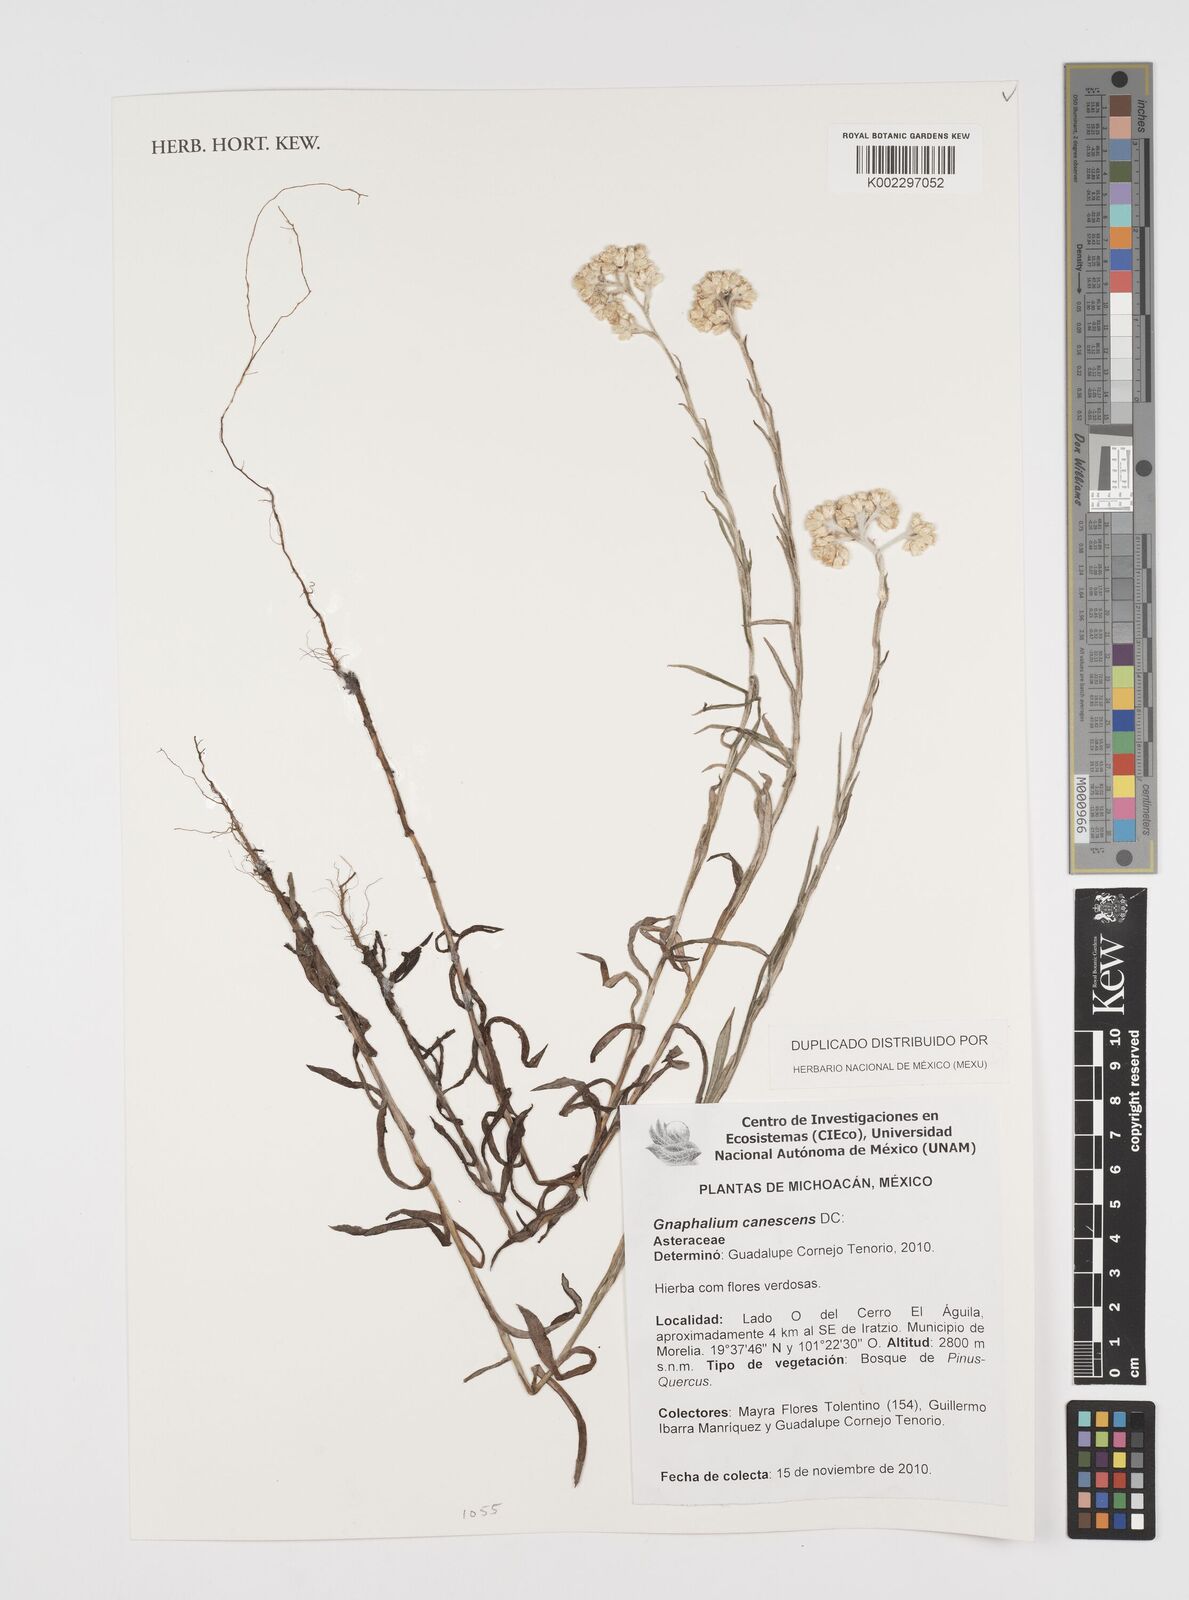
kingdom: Plantae
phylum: Tracheophyta
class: Magnoliopsida
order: Asterales
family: Asteraceae
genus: Pseudognaphalium
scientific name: Pseudognaphalium canescens
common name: Wright's rabbit-tobacco
